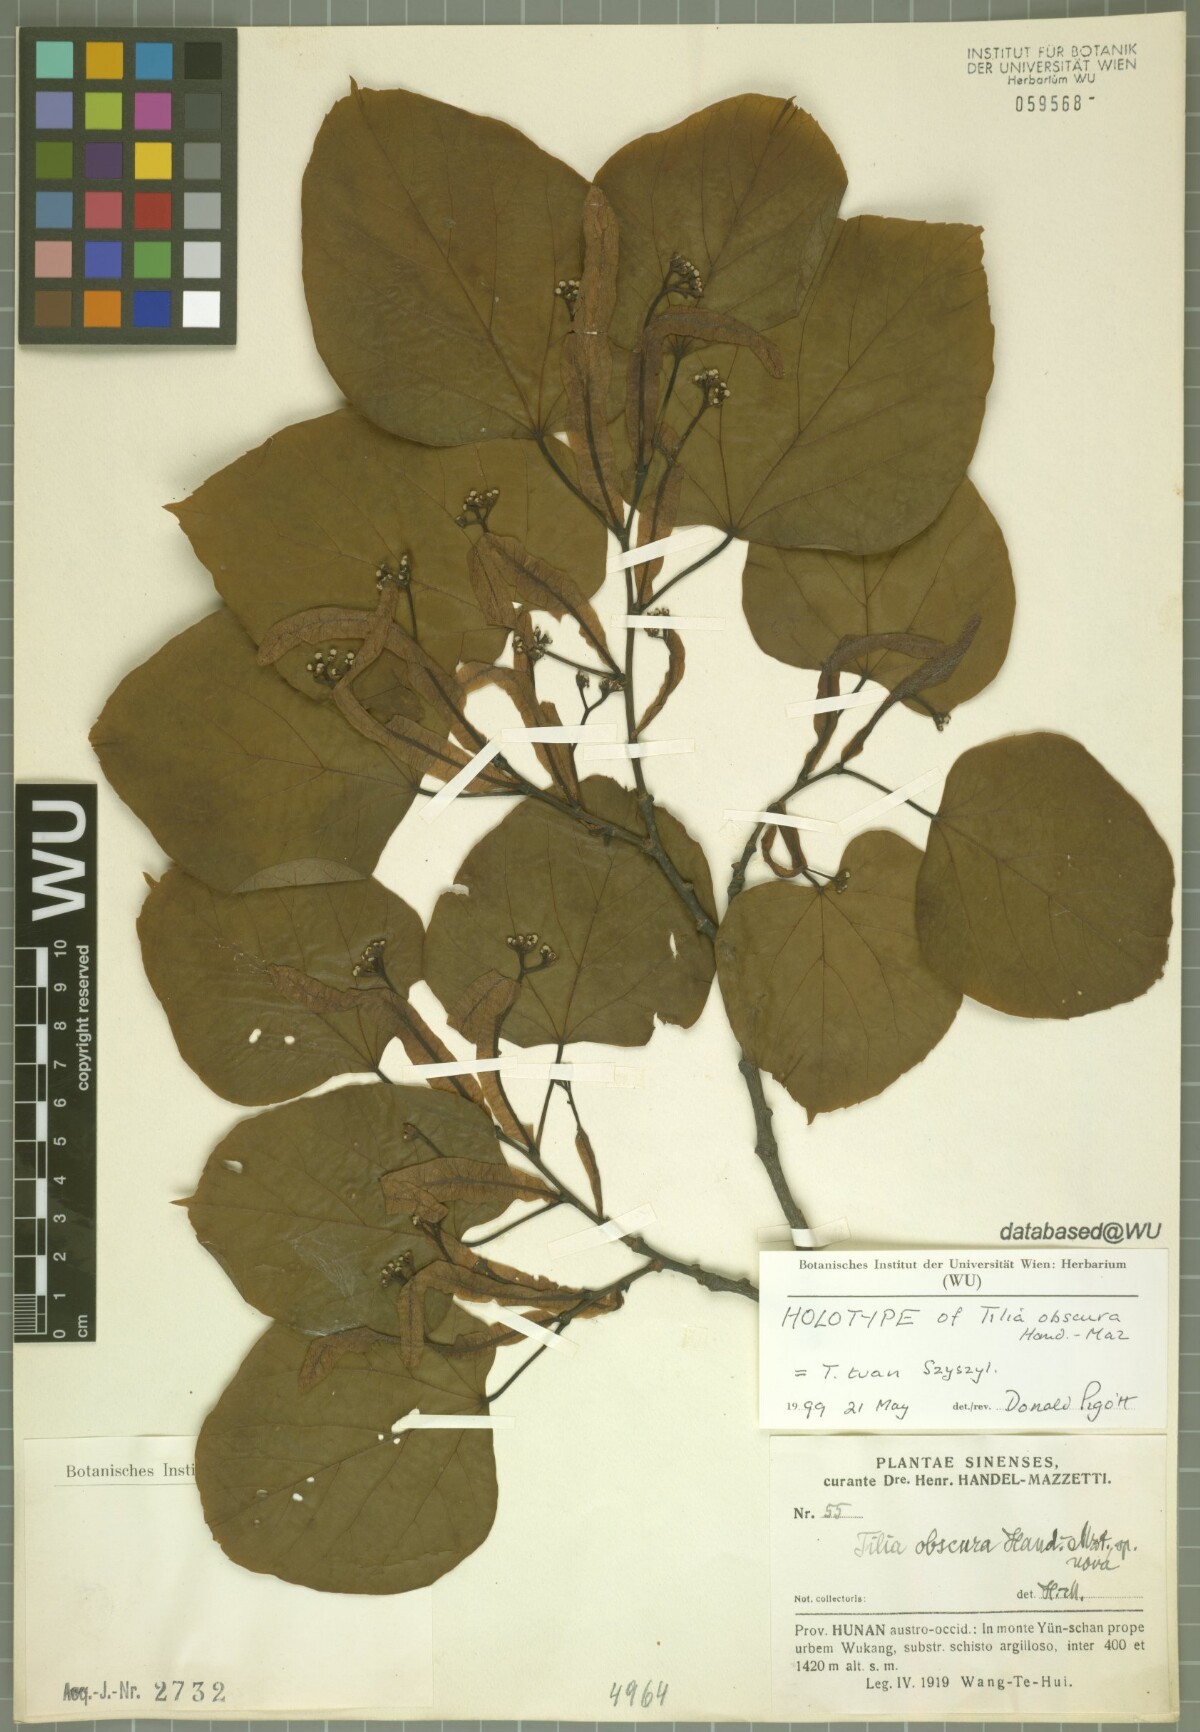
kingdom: Plantae
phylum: Tracheophyta
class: Magnoliopsida
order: Malvales
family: Malvaceae
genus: Tilia
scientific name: Tilia tuan
